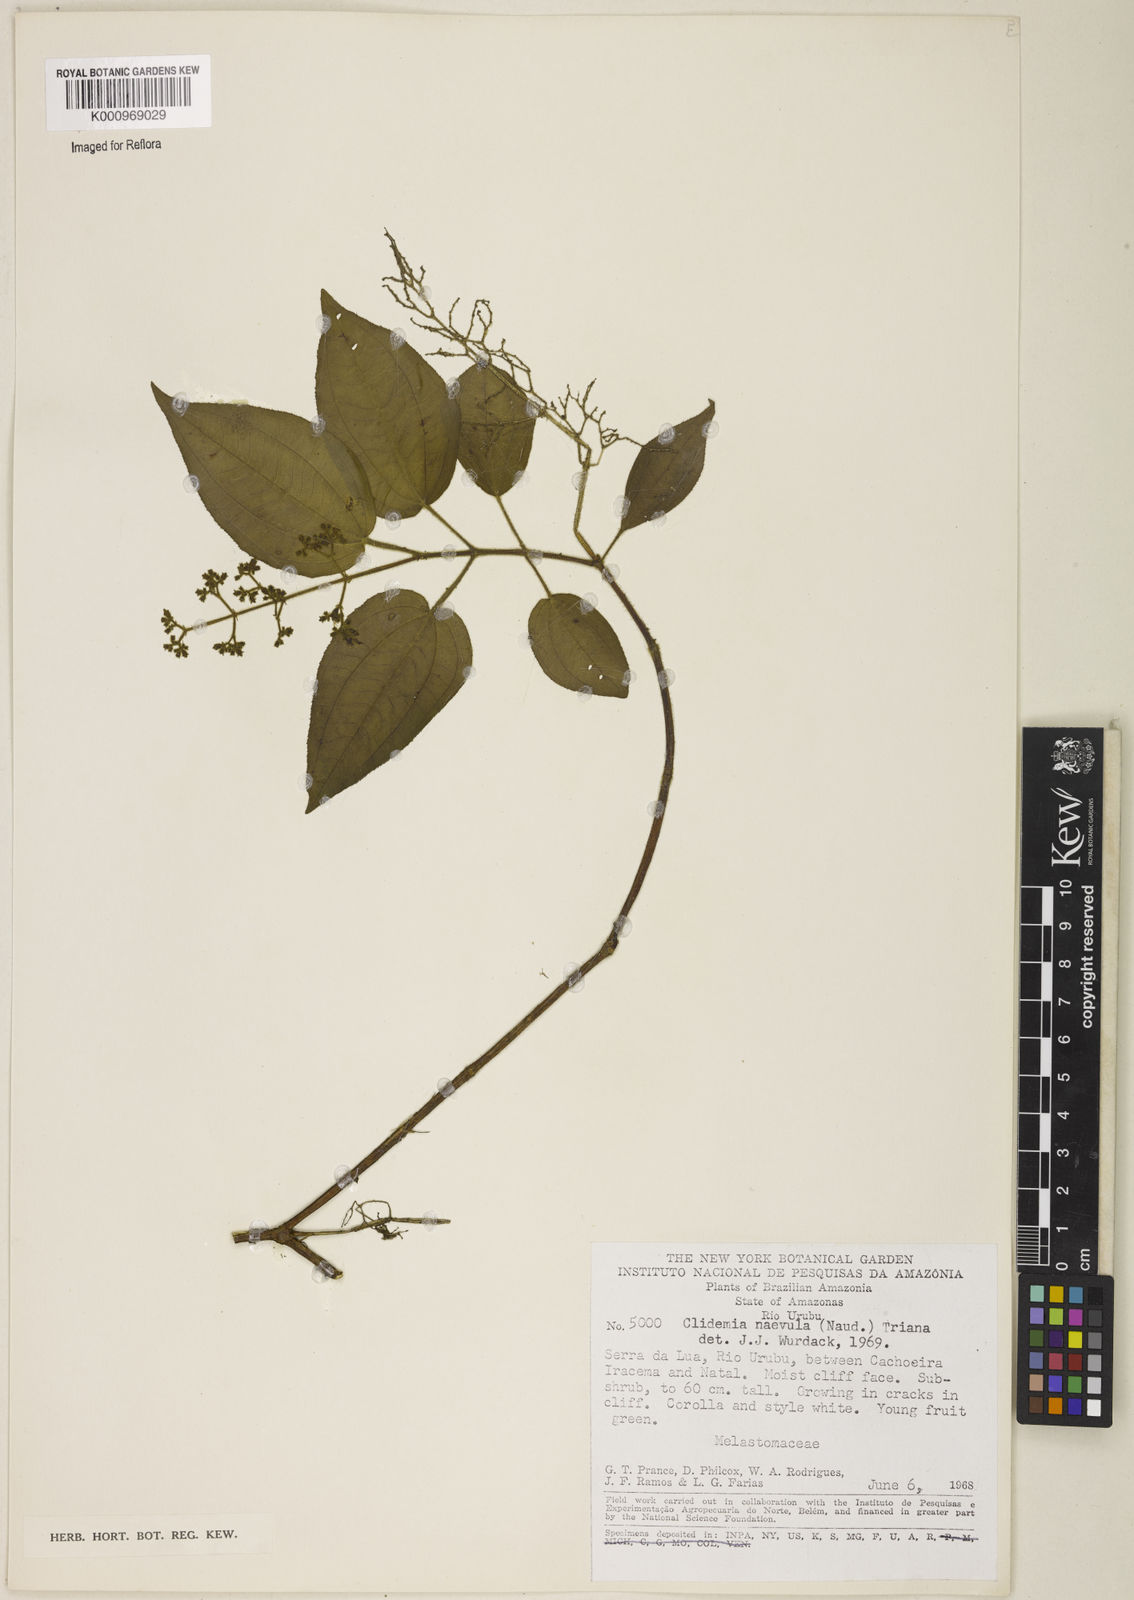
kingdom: Plantae
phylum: Tracheophyta
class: Magnoliopsida
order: Myrtales
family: Melastomataceae
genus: Miconia
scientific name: Miconia heteroclita
